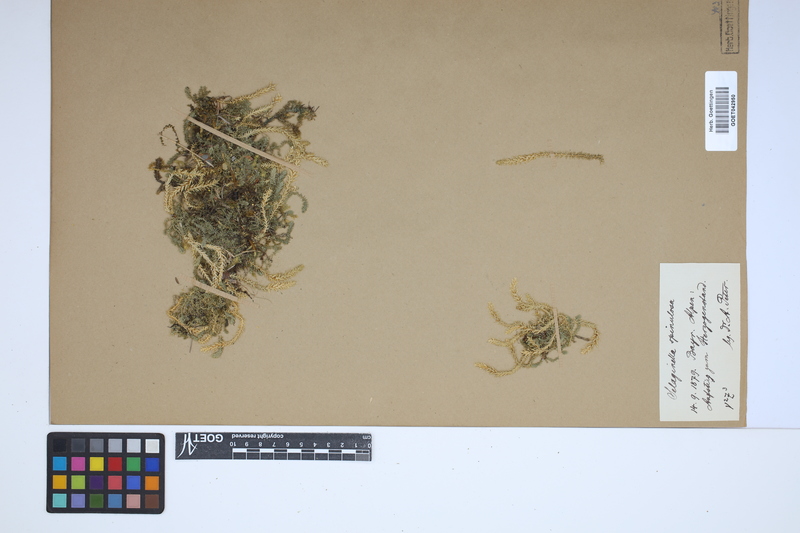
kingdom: Plantae
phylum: Tracheophyta
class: Lycopodiopsida
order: Selaginellales
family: Selaginellaceae
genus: Selaginella
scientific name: Selaginella selaginoides
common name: Prickly mountain-moss
